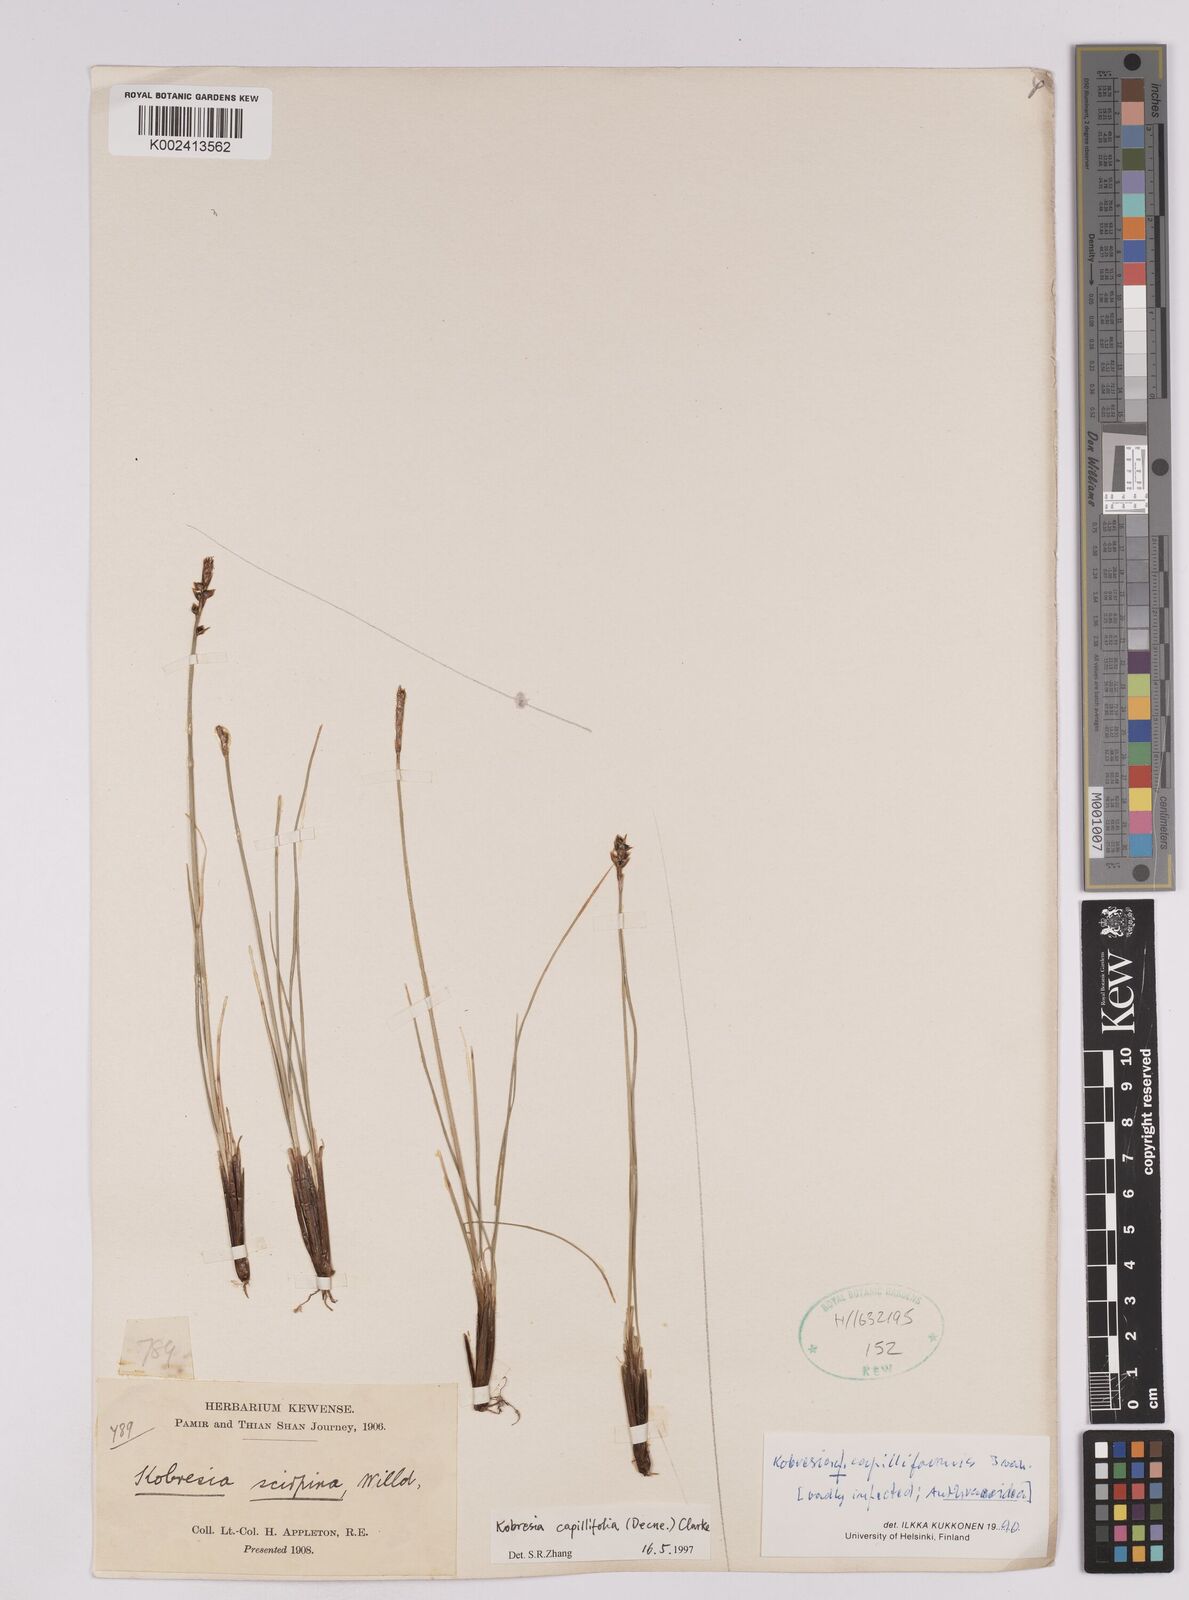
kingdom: Plantae
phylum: Tracheophyta
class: Liliopsida
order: Poales
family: Cyperaceae
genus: Carex
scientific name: Carex capillifolia
